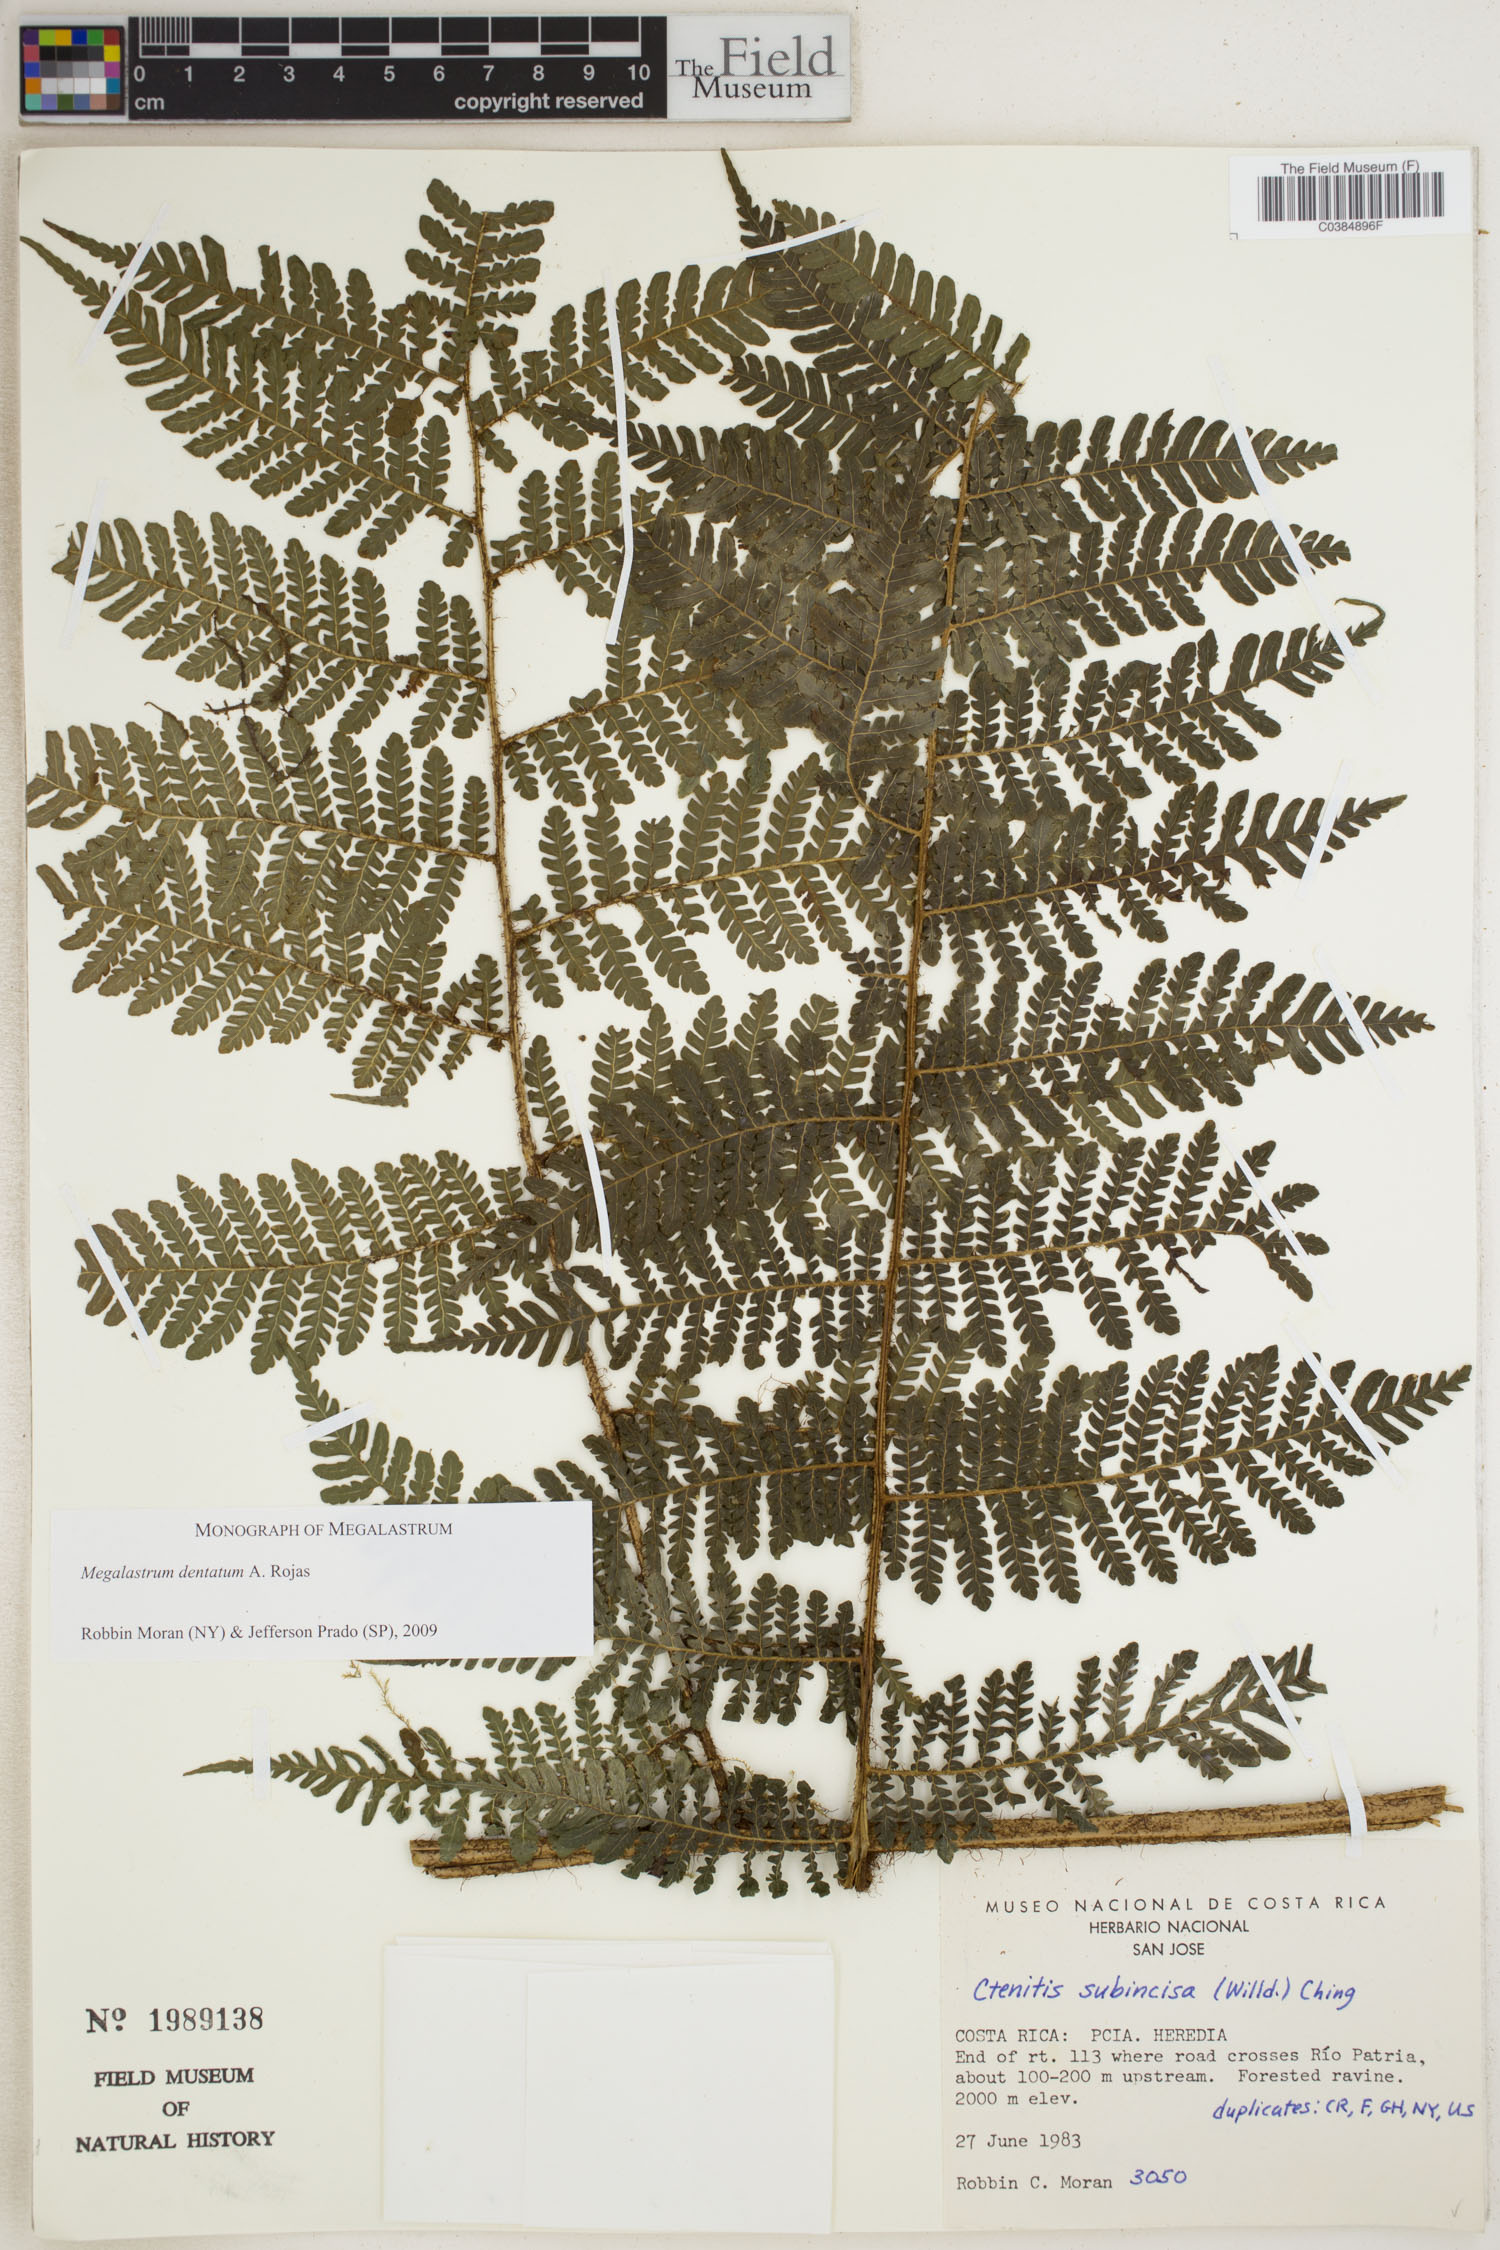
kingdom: Plantae
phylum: Tracheophyta
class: Polypodiopsida
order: Polypodiales
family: Dryopteridaceae
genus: Megalastrum
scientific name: Megalastrum dentatum
